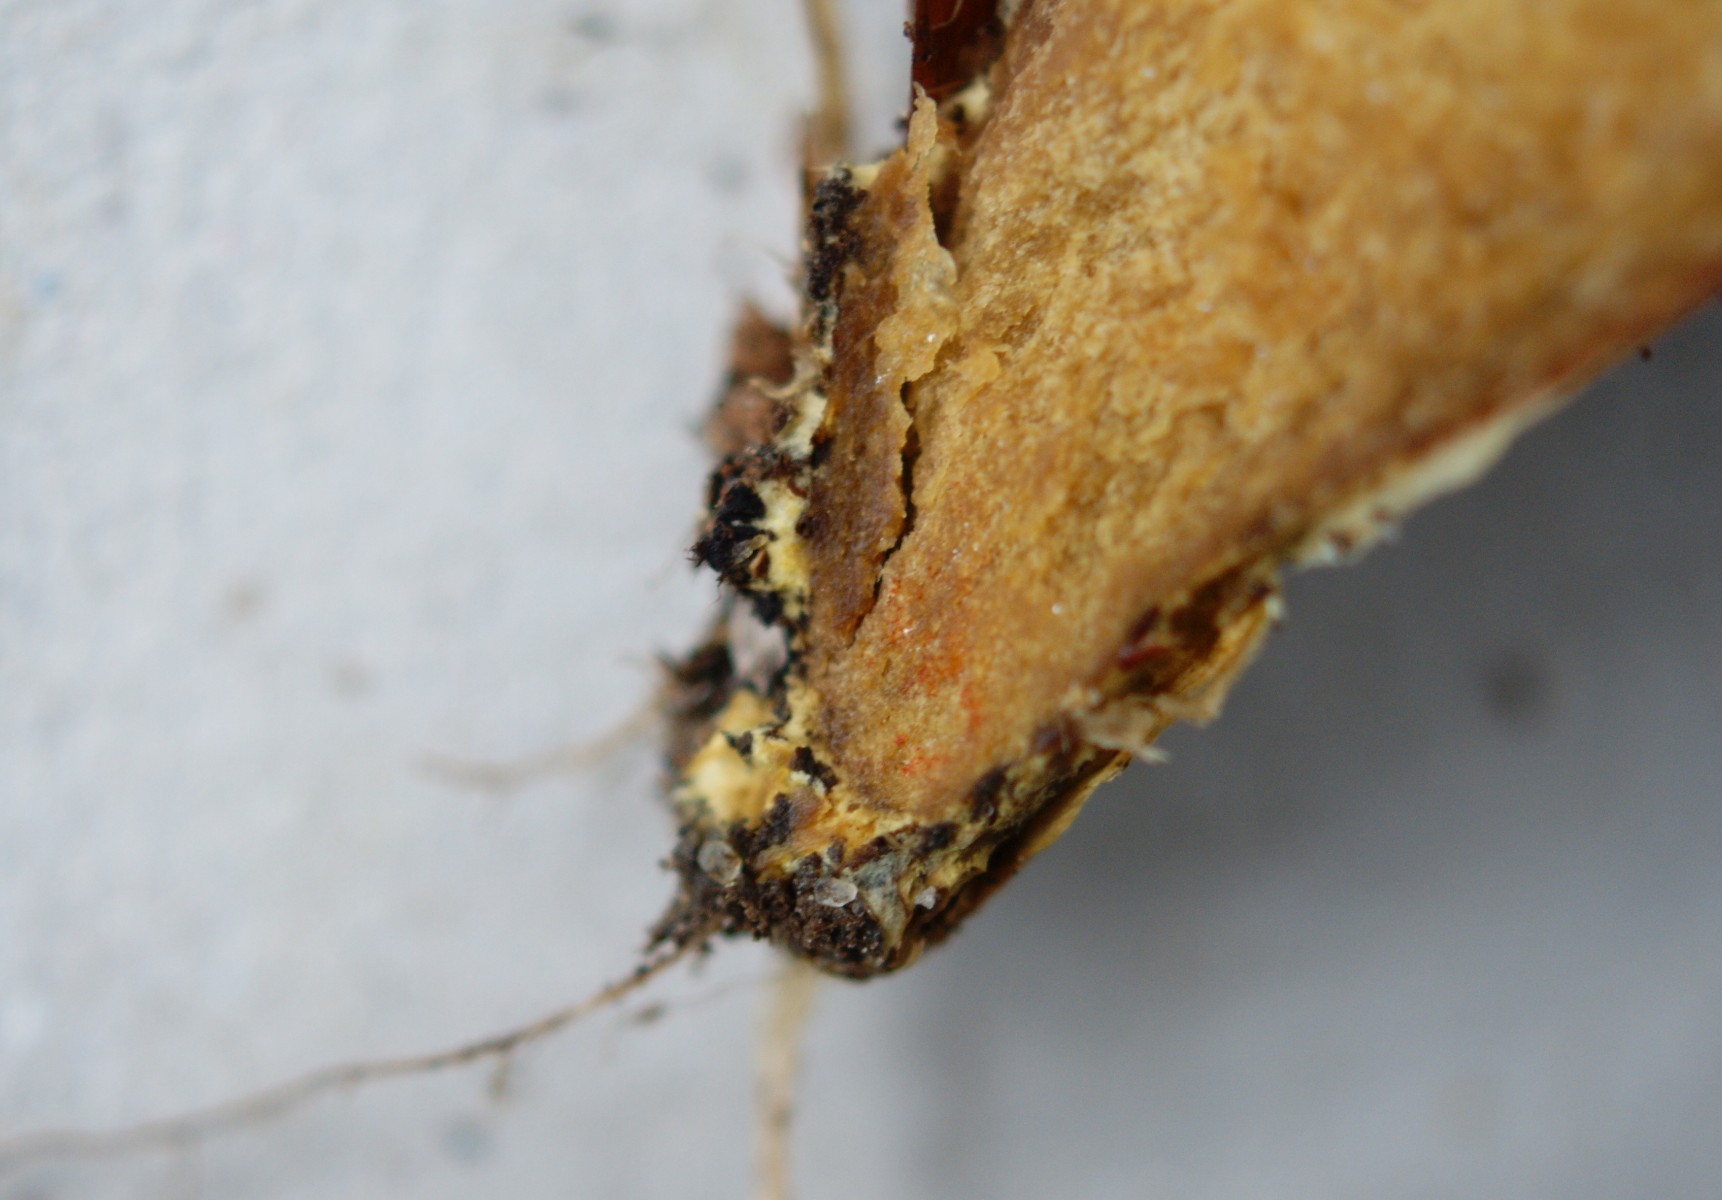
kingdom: Fungi
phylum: Basidiomycota
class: Agaricomycetes
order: Boletales
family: Boletaceae
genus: Hortiboletus
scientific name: Hortiboletus rubellus
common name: blodrød rørhat
